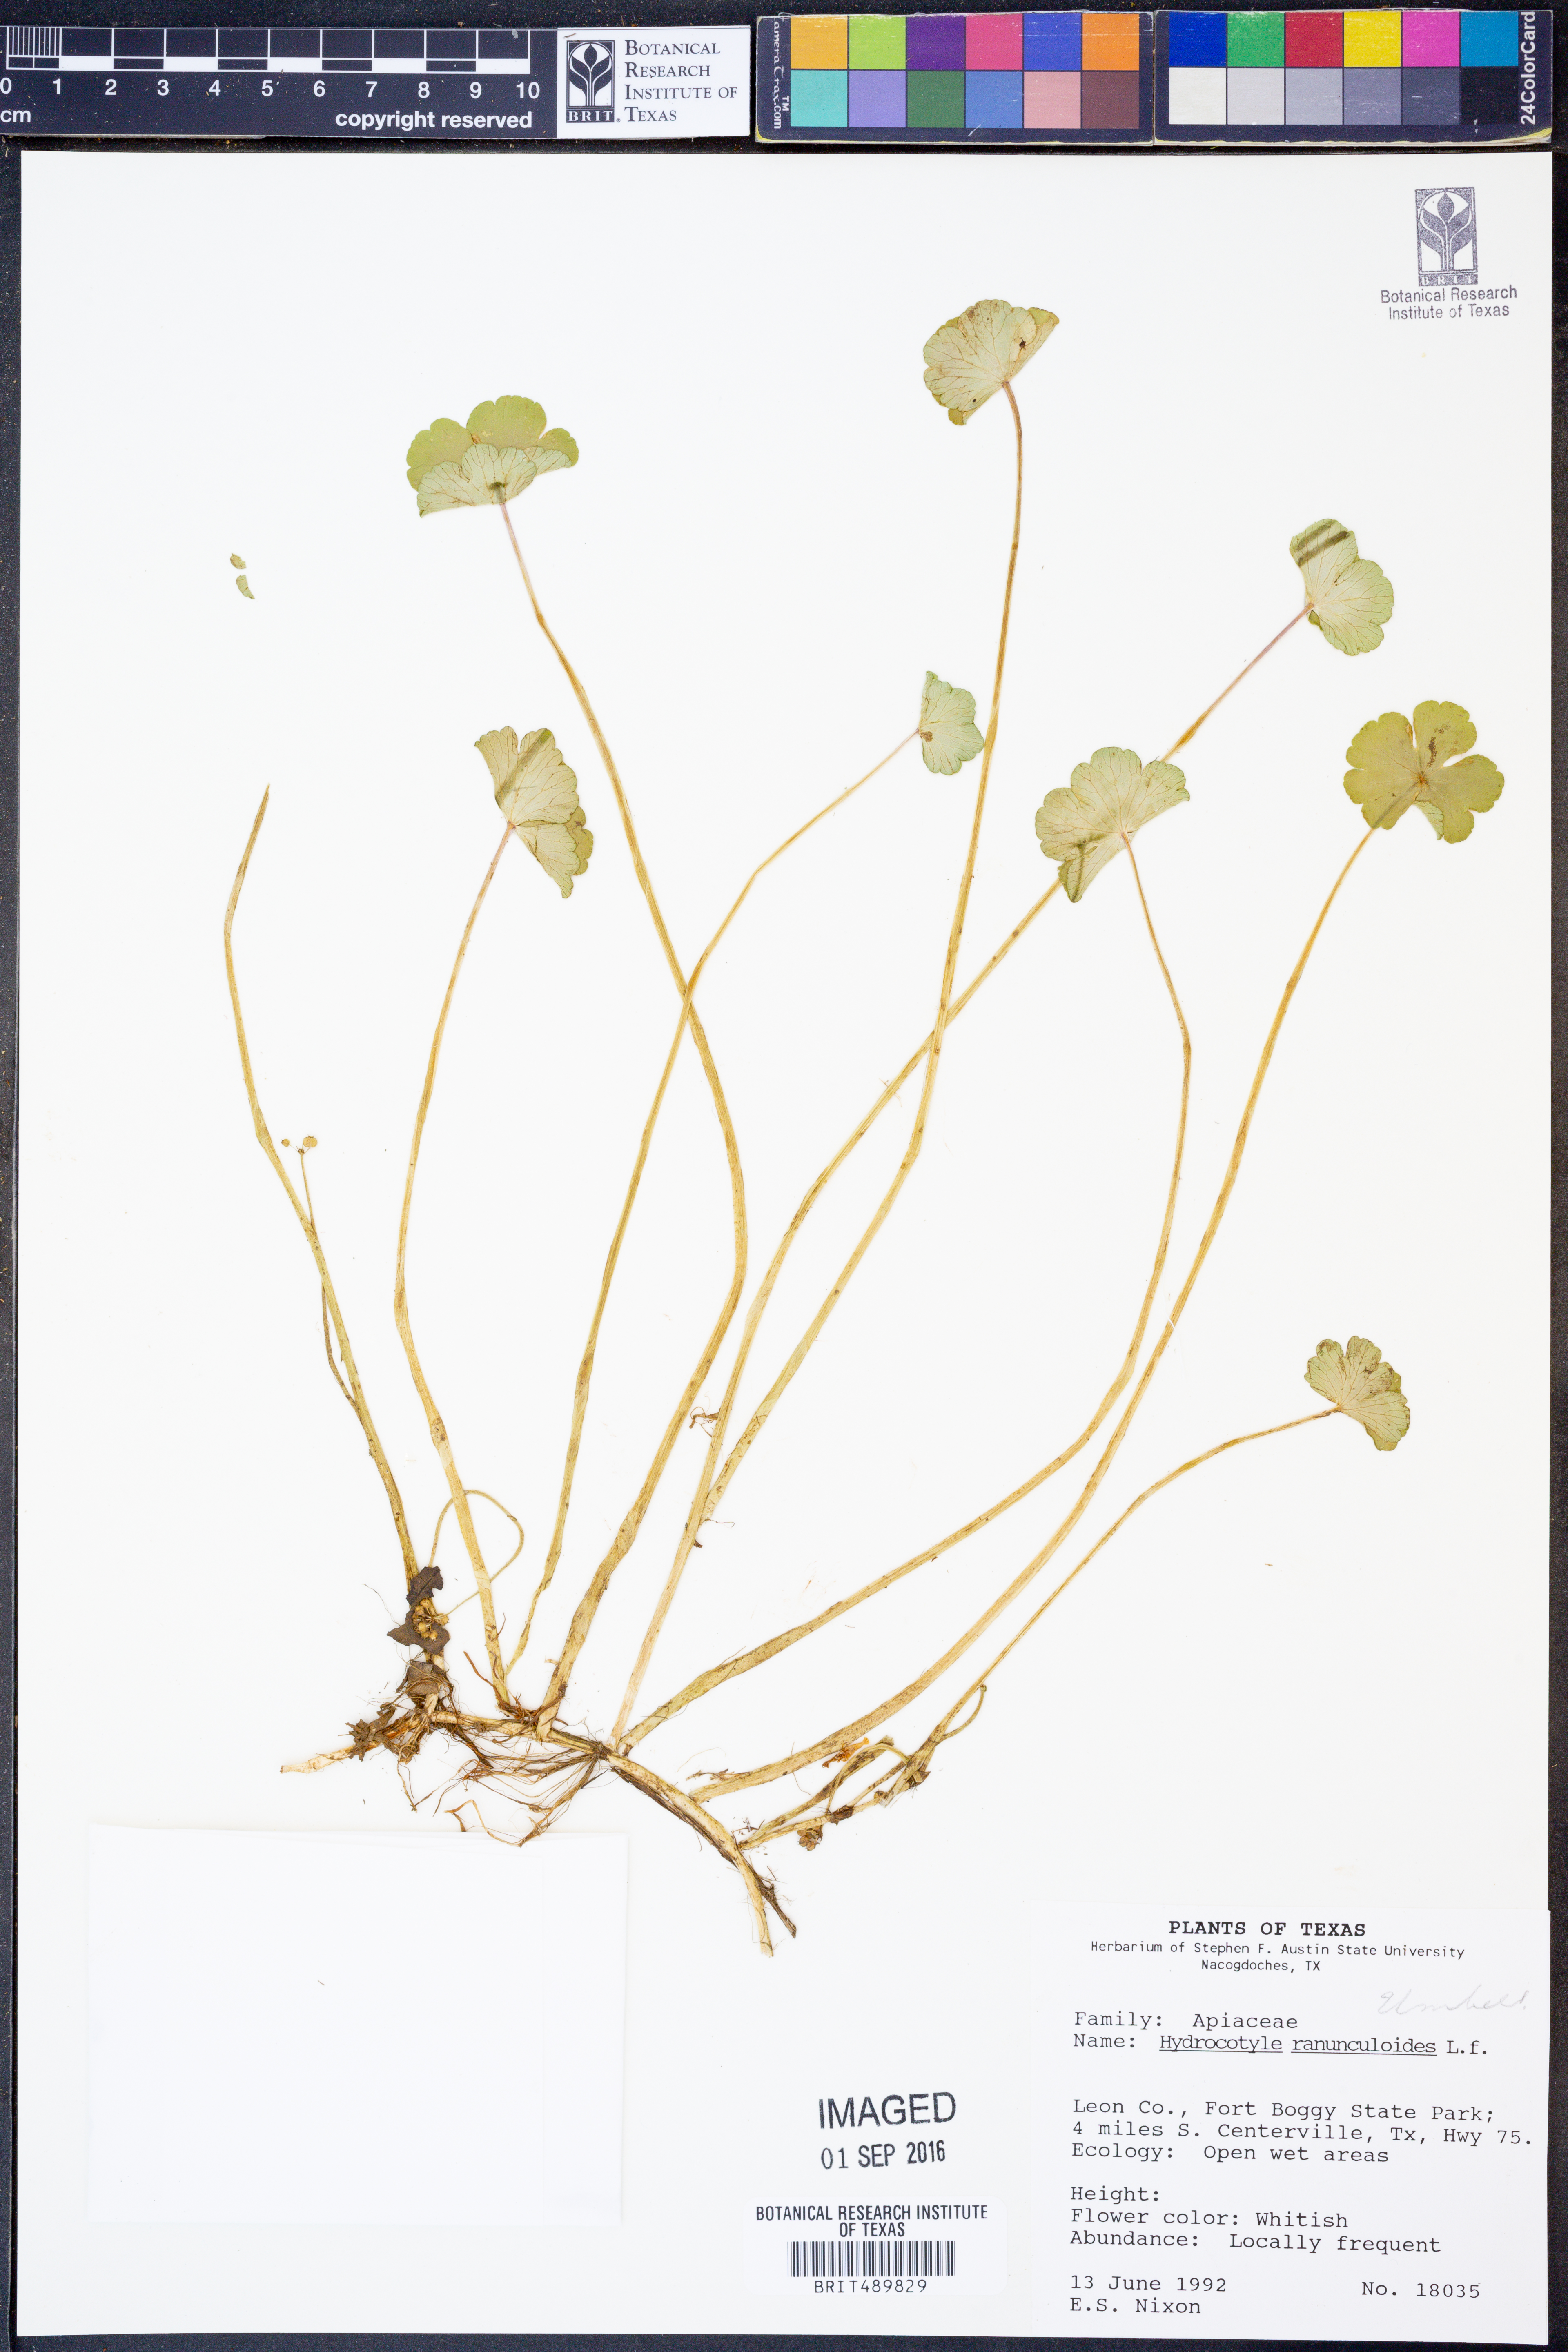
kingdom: Plantae
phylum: Tracheophyta
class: Magnoliopsida
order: Apiales
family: Araliaceae
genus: Hydrocotyle
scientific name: Hydrocotyle ranunculoides
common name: Floating pennywort
